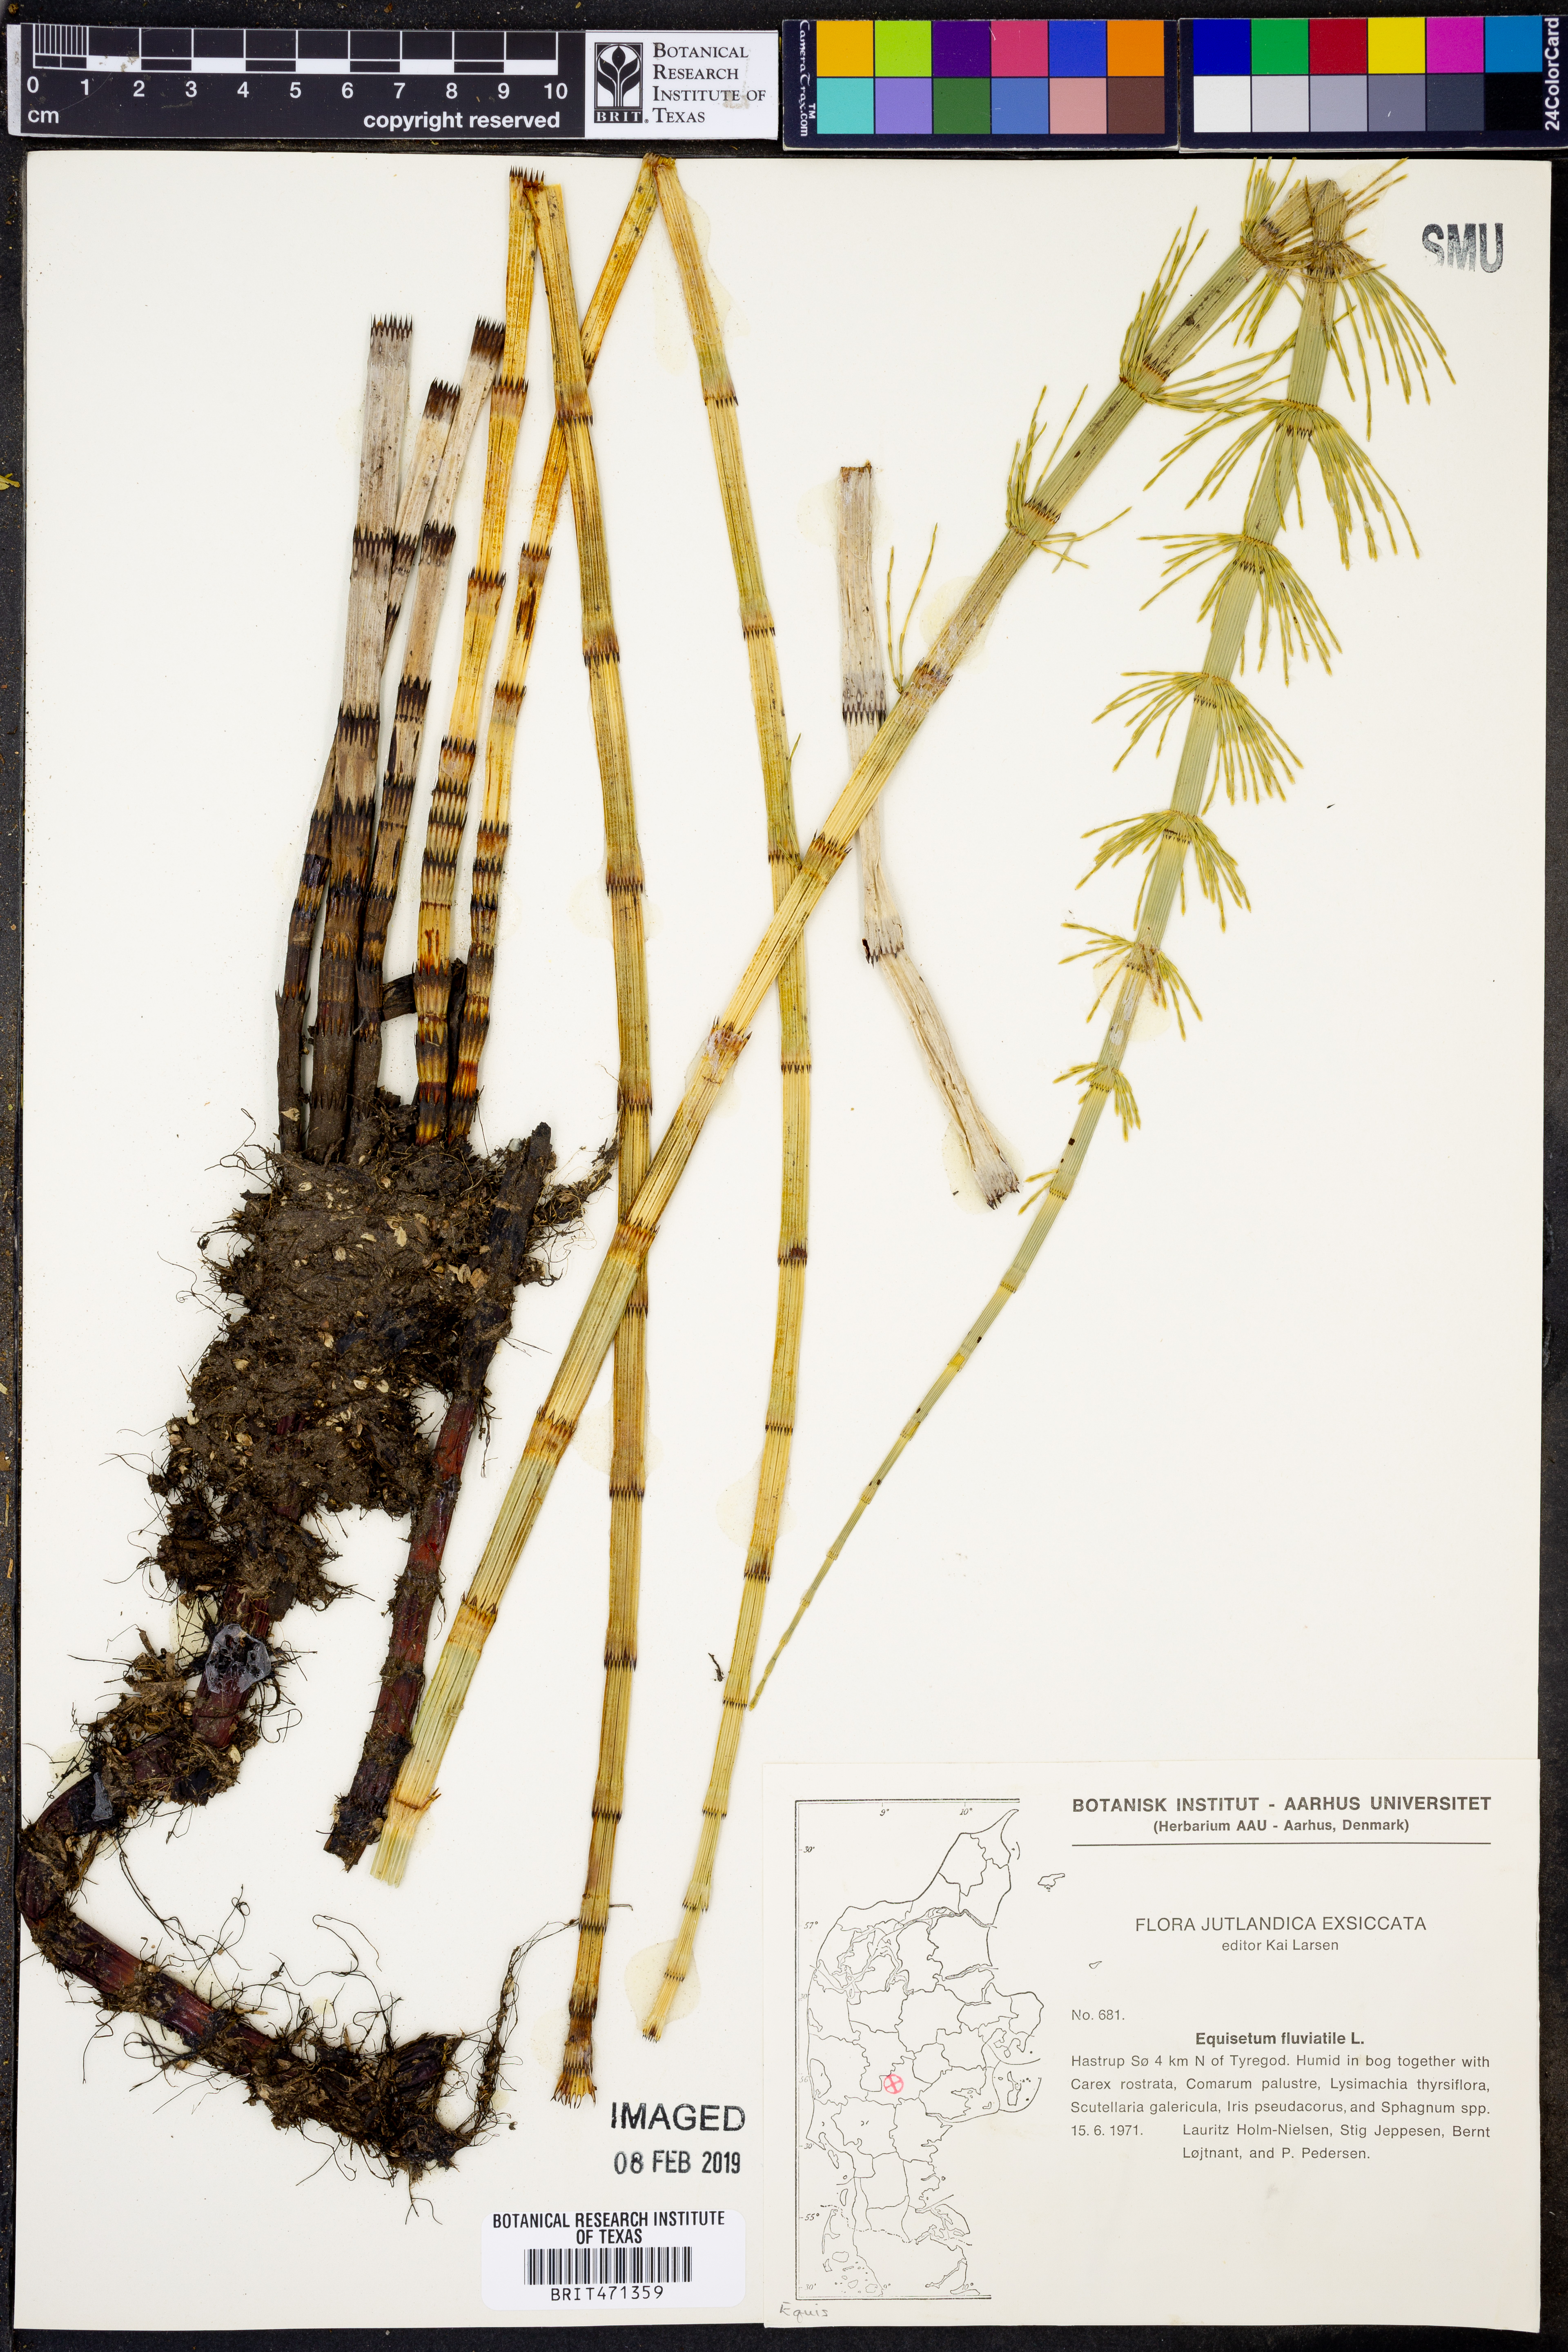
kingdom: Plantae
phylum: Tracheophyta
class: Polypodiopsida
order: Equisetales
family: Equisetaceae
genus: Equisetum
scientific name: Equisetum fluviatile
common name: Water horsetail
